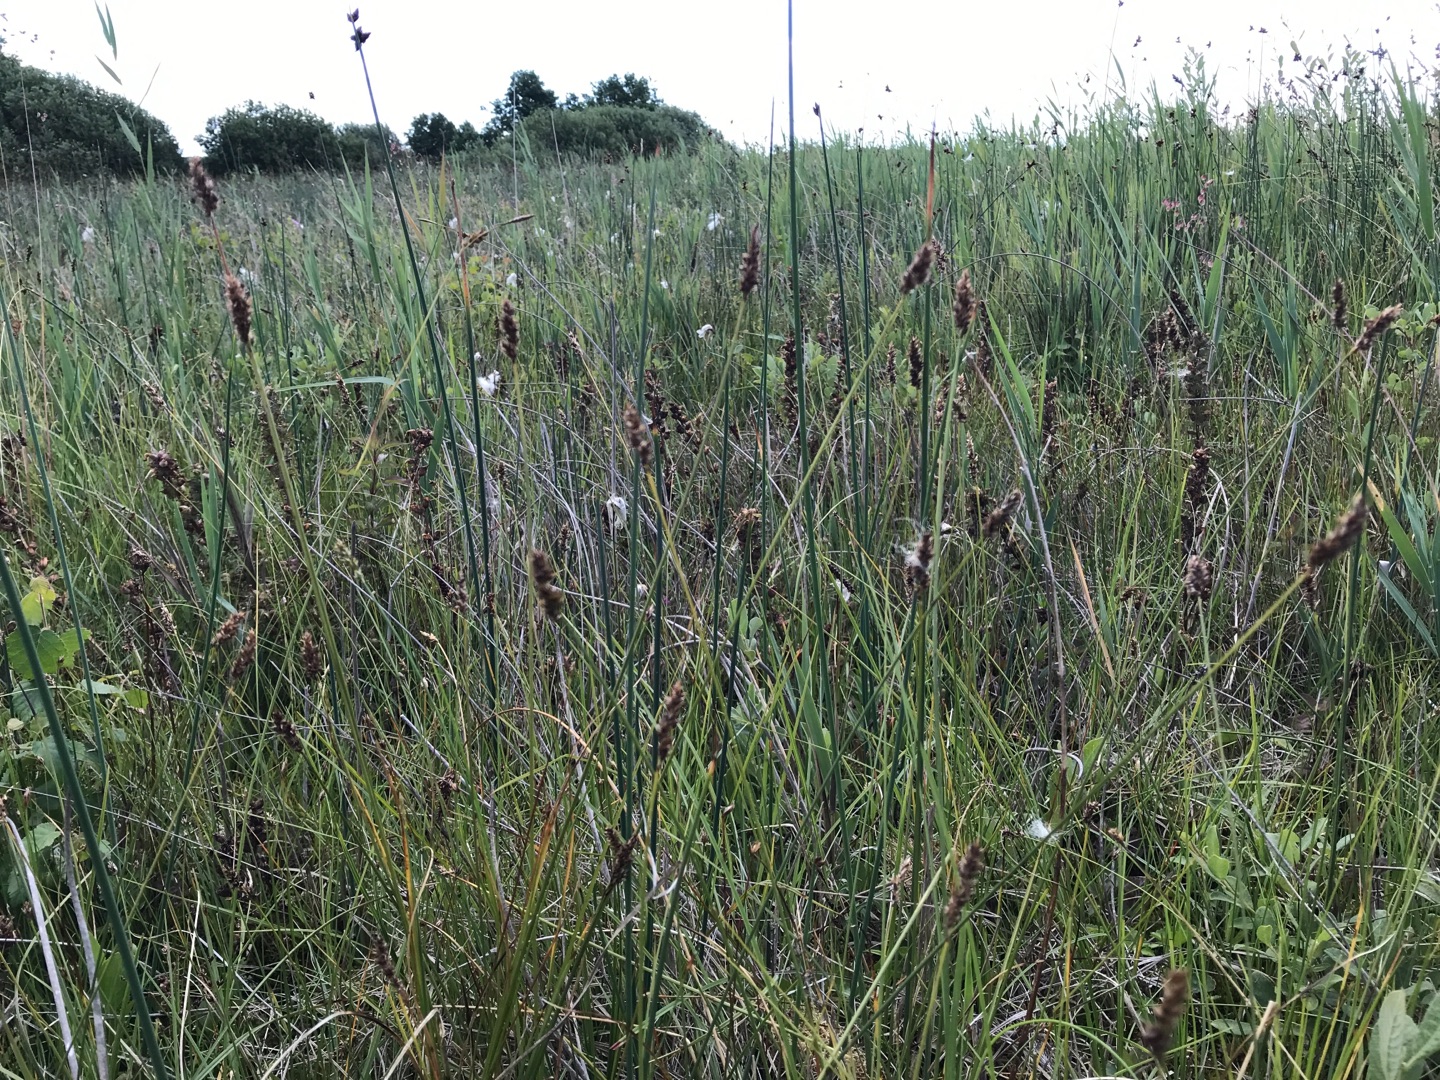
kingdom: Plantae
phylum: Tracheophyta
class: Liliopsida
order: Poales
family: Cyperaceae
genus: Carex
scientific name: Carex diandra
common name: Trindstænglet star
